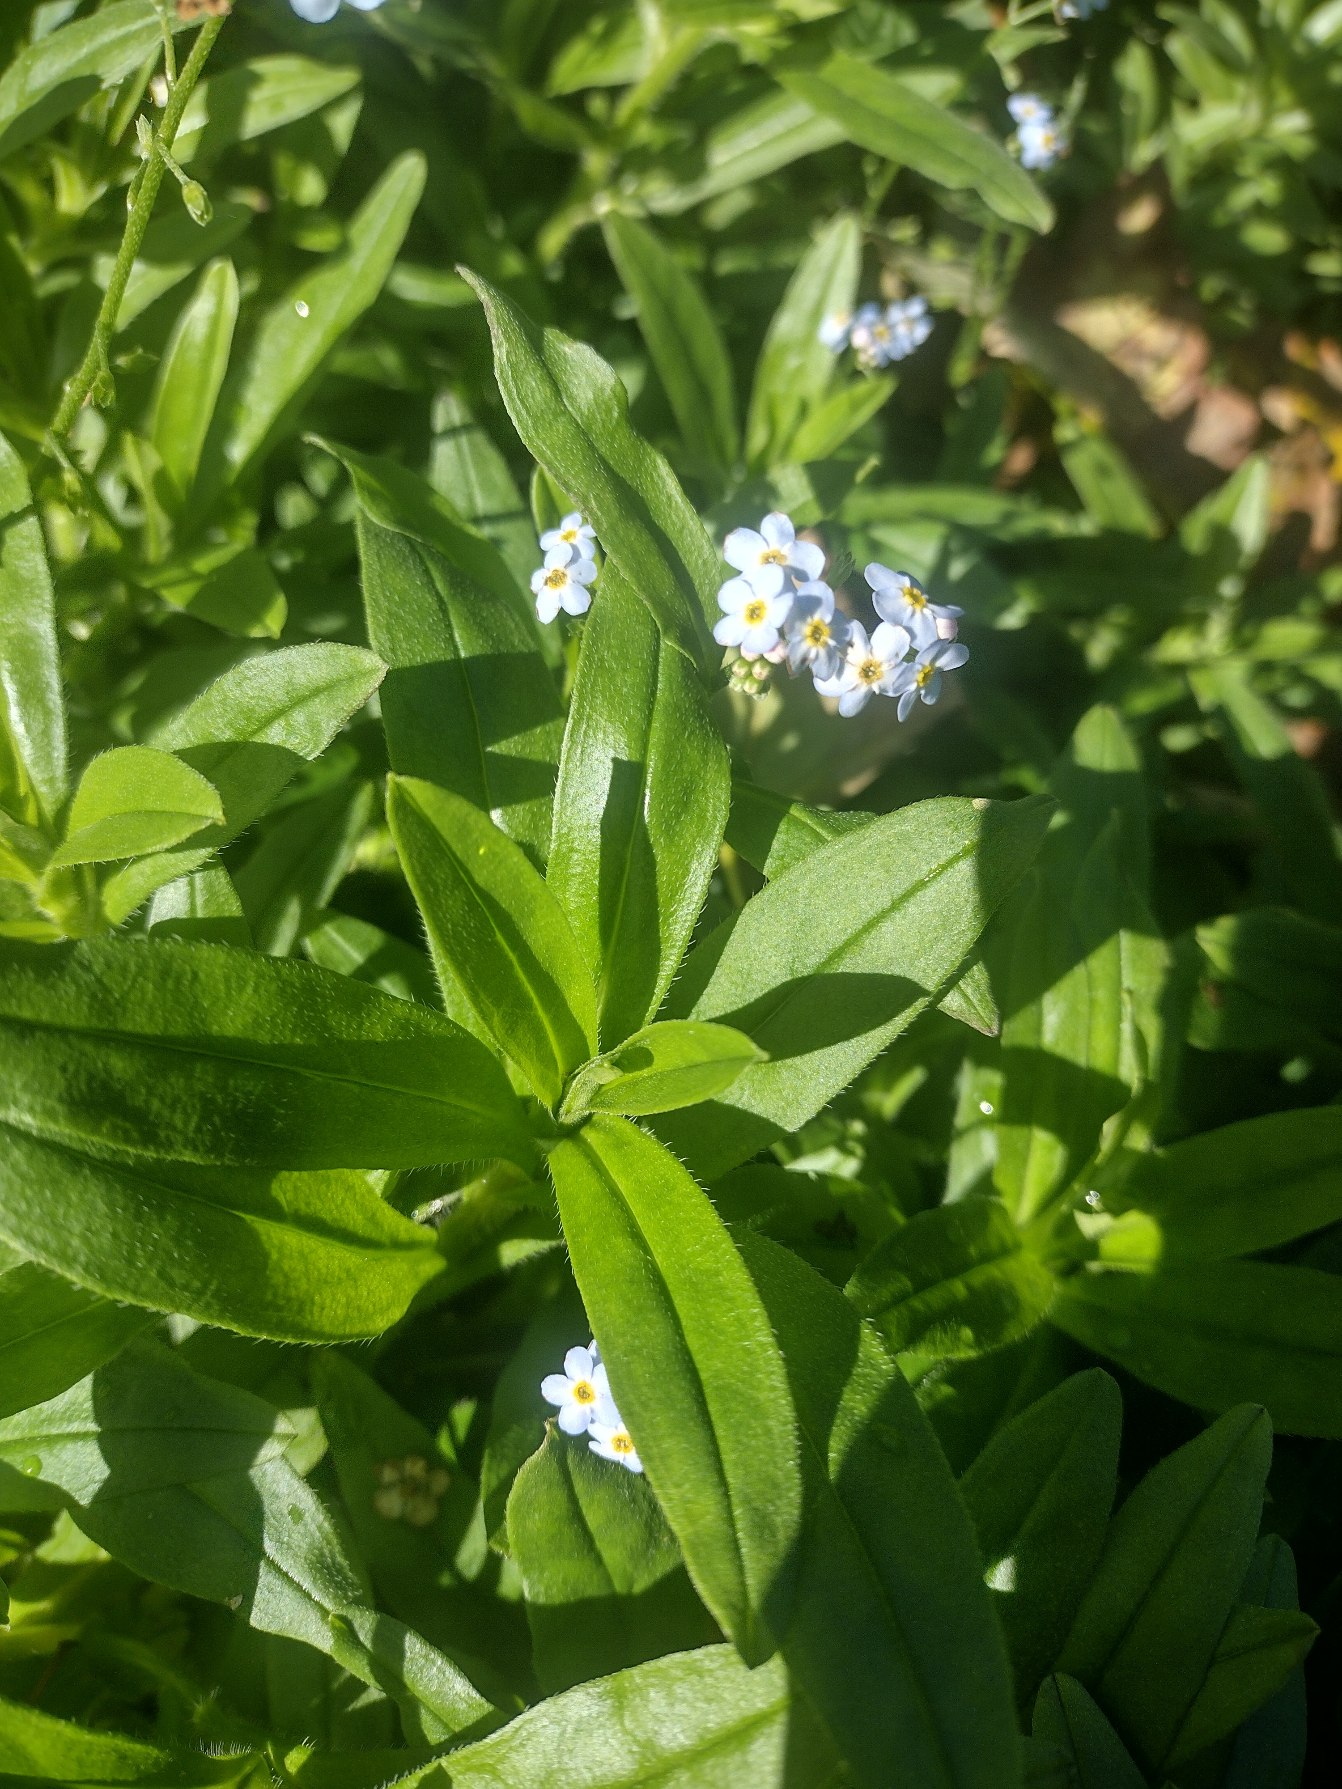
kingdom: Plantae
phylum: Tracheophyta
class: Magnoliopsida
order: Boraginales
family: Boraginaceae
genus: Myosotis
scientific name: Myosotis scorpioides
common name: Eng-forglemmigej
